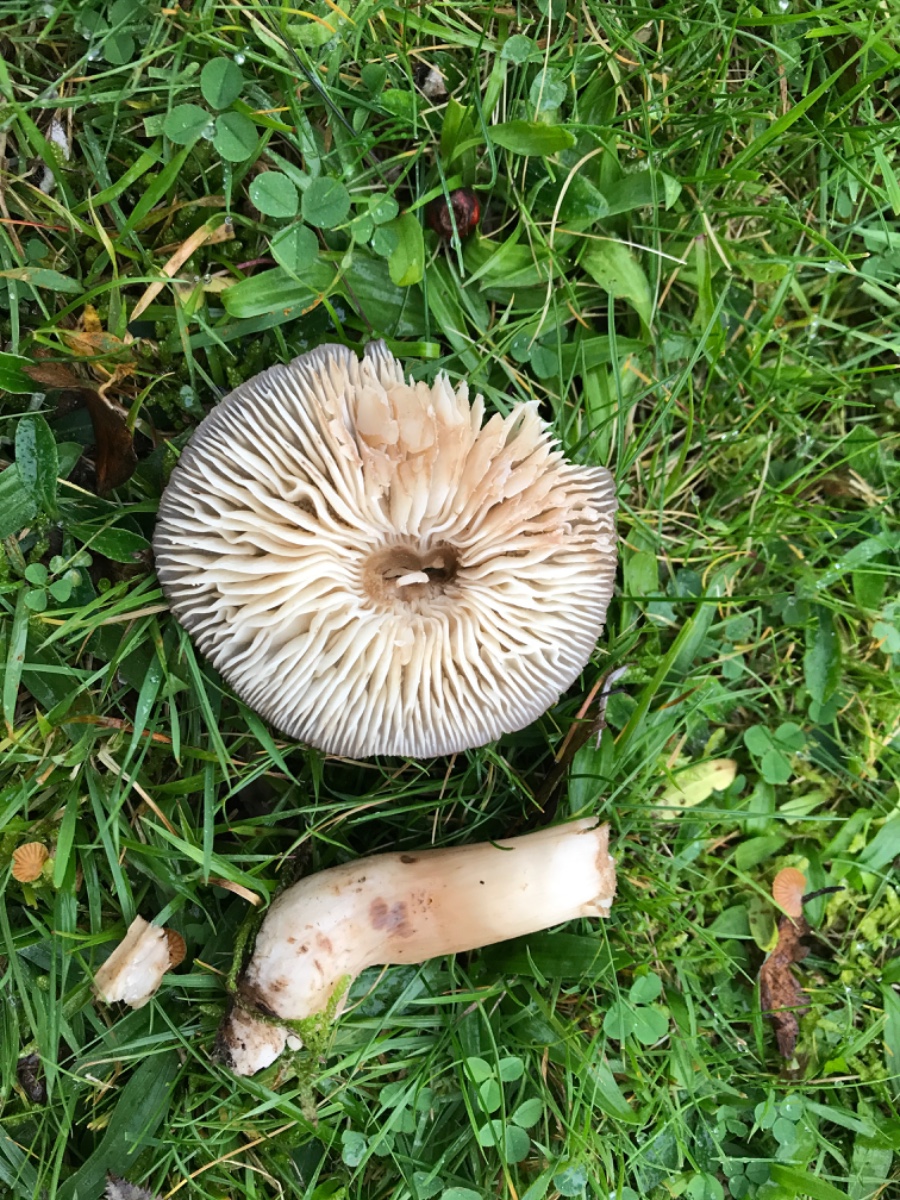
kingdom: Fungi
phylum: Basidiomycota
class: Agaricomycetes
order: Agaricales
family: Hygrophoraceae
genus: Hygrocybe
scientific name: Hygrocybe ingrata
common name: Jensens vokshat
